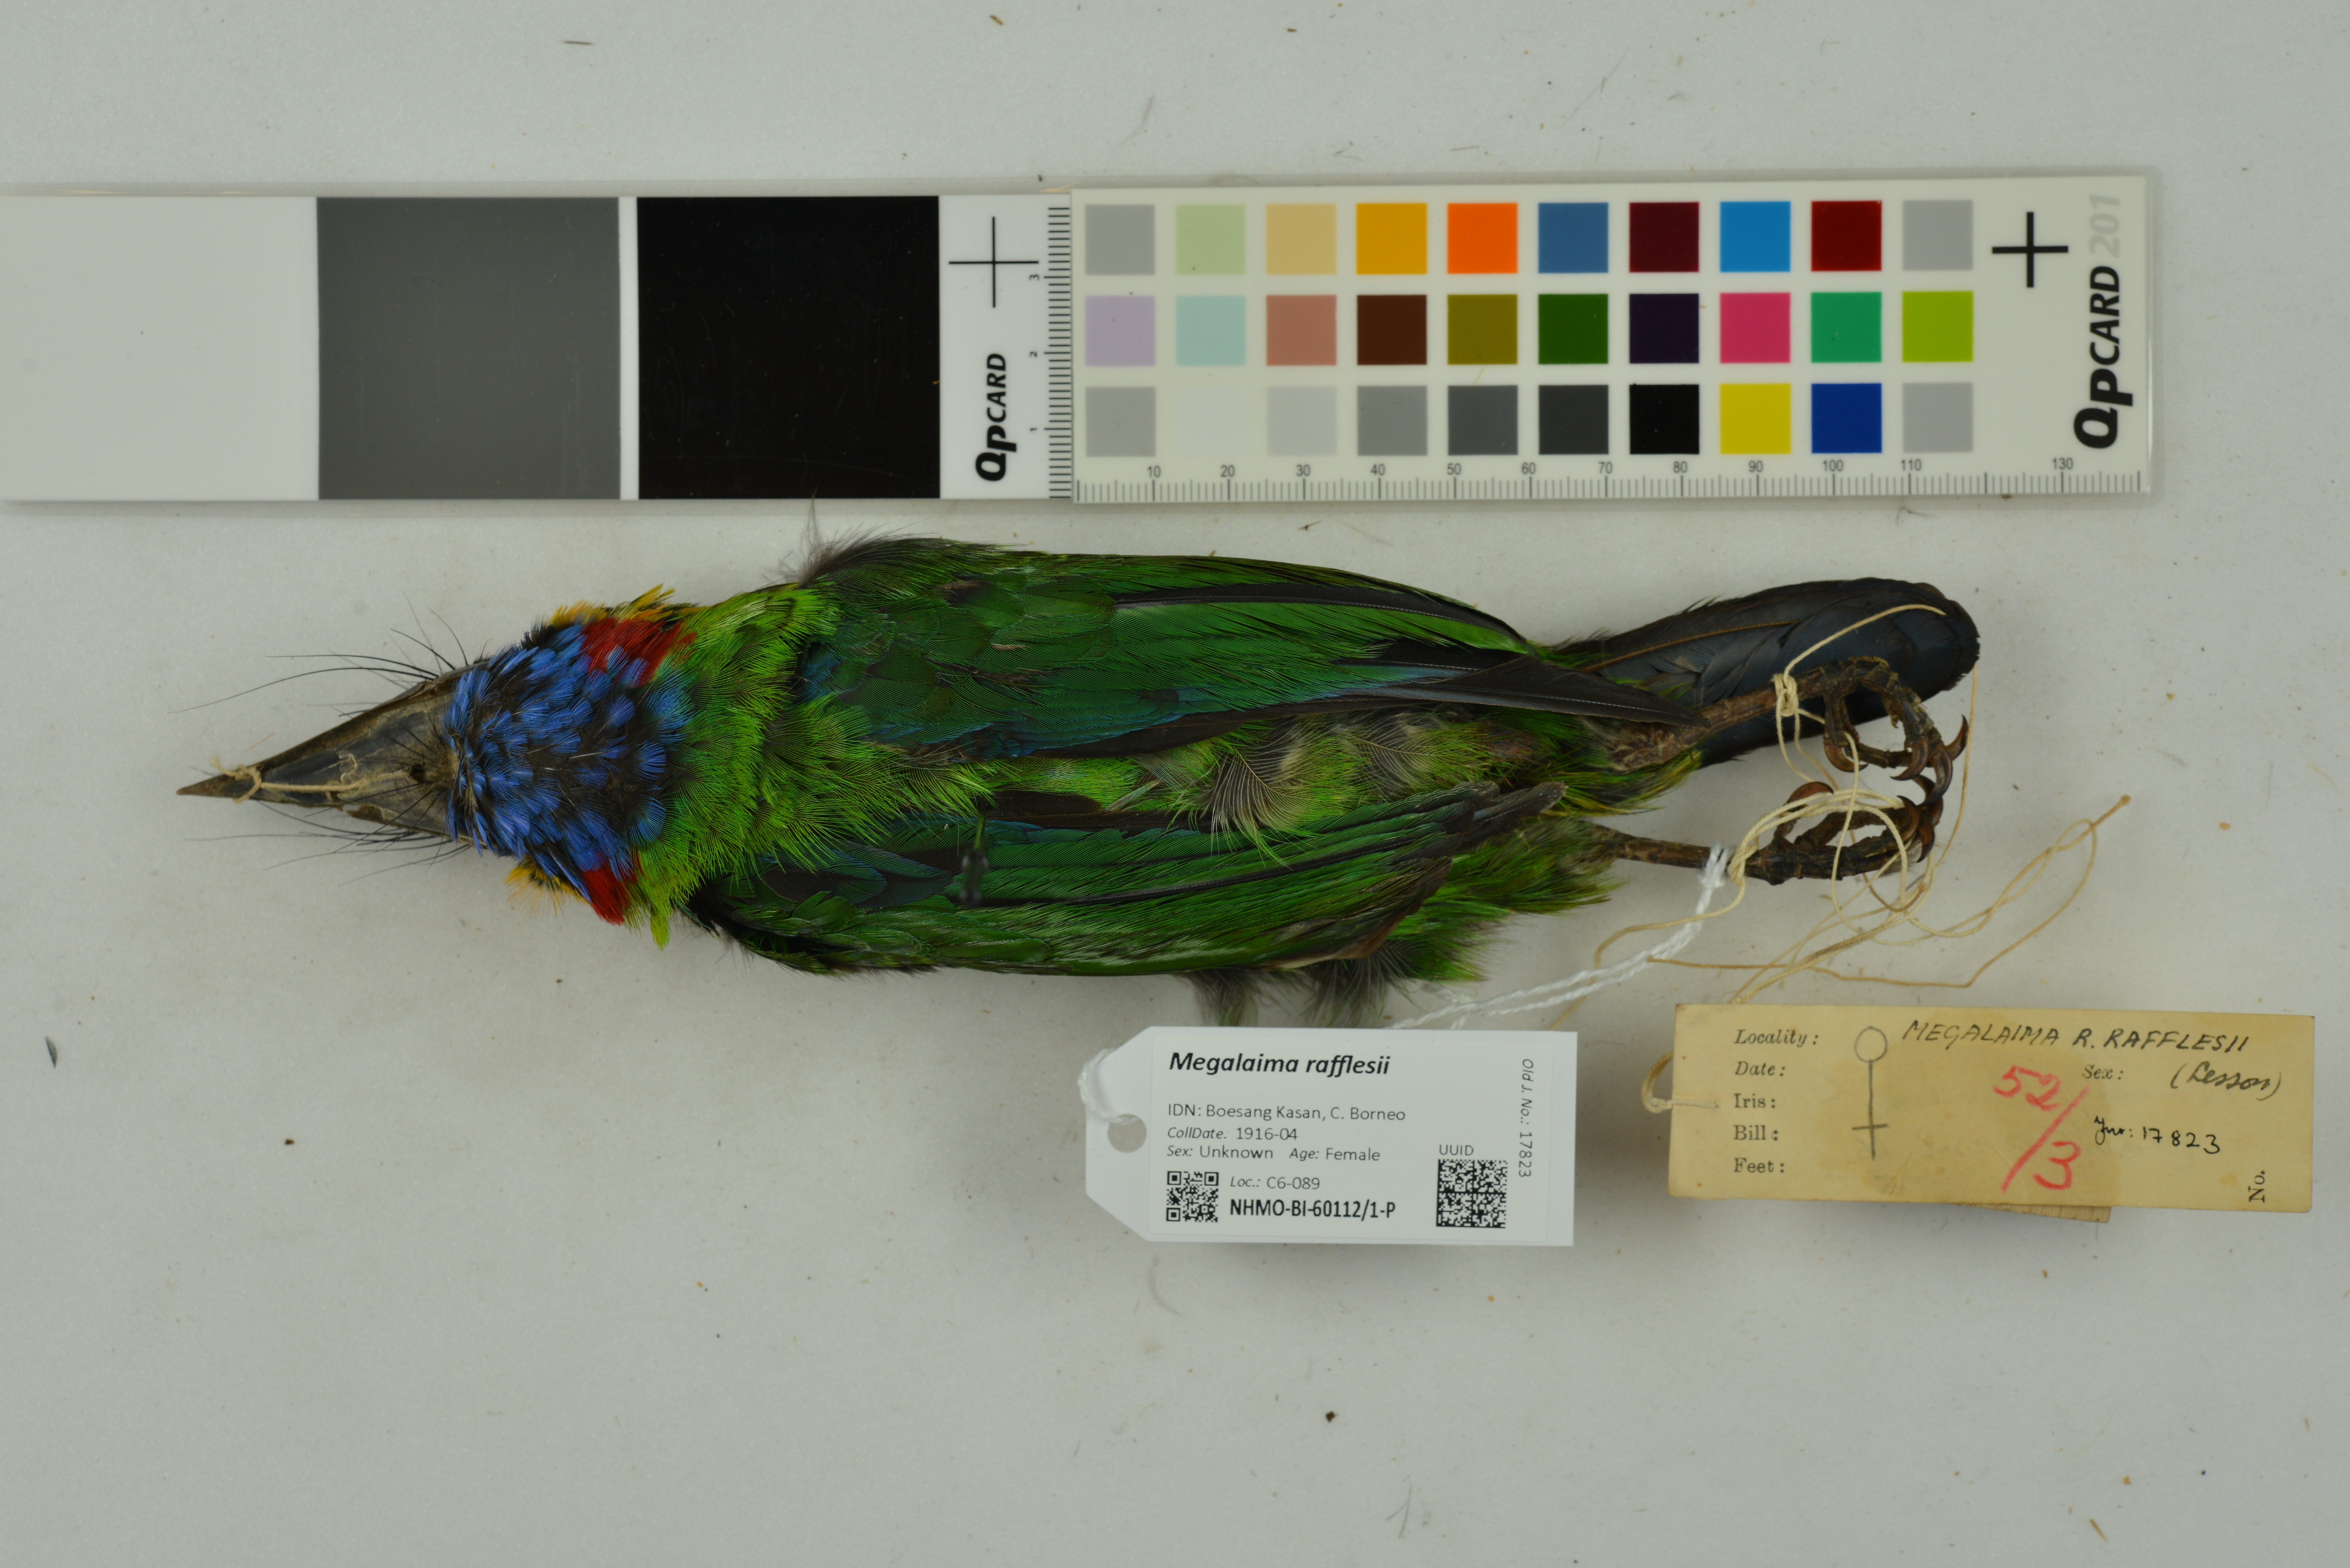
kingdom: Animalia
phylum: Chordata
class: Aves
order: Piciformes
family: Megalaimidae
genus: Psilopogon
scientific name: Psilopogon rafflesii
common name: Red-crowned barbet
